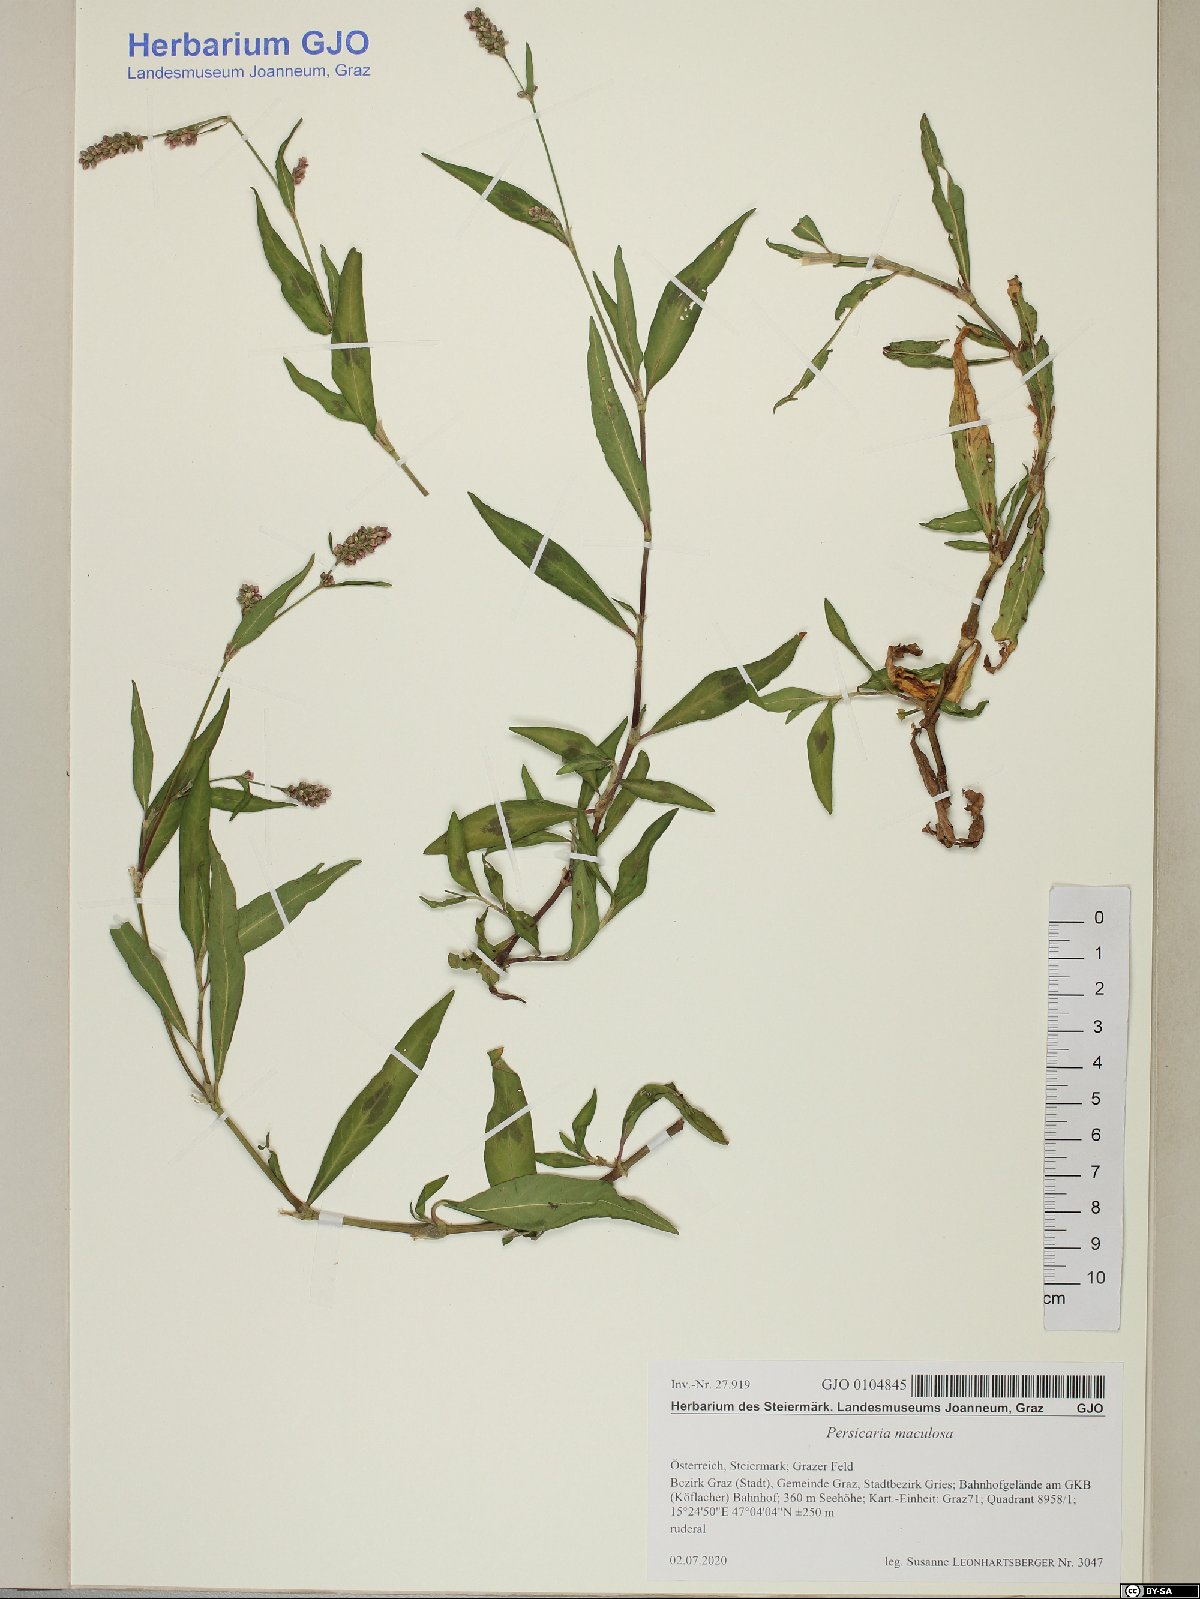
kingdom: Plantae
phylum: Tracheophyta
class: Magnoliopsida
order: Caryophyllales
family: Polygonaceae
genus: Persicaria
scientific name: Persicaria maculosa
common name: Redshank
